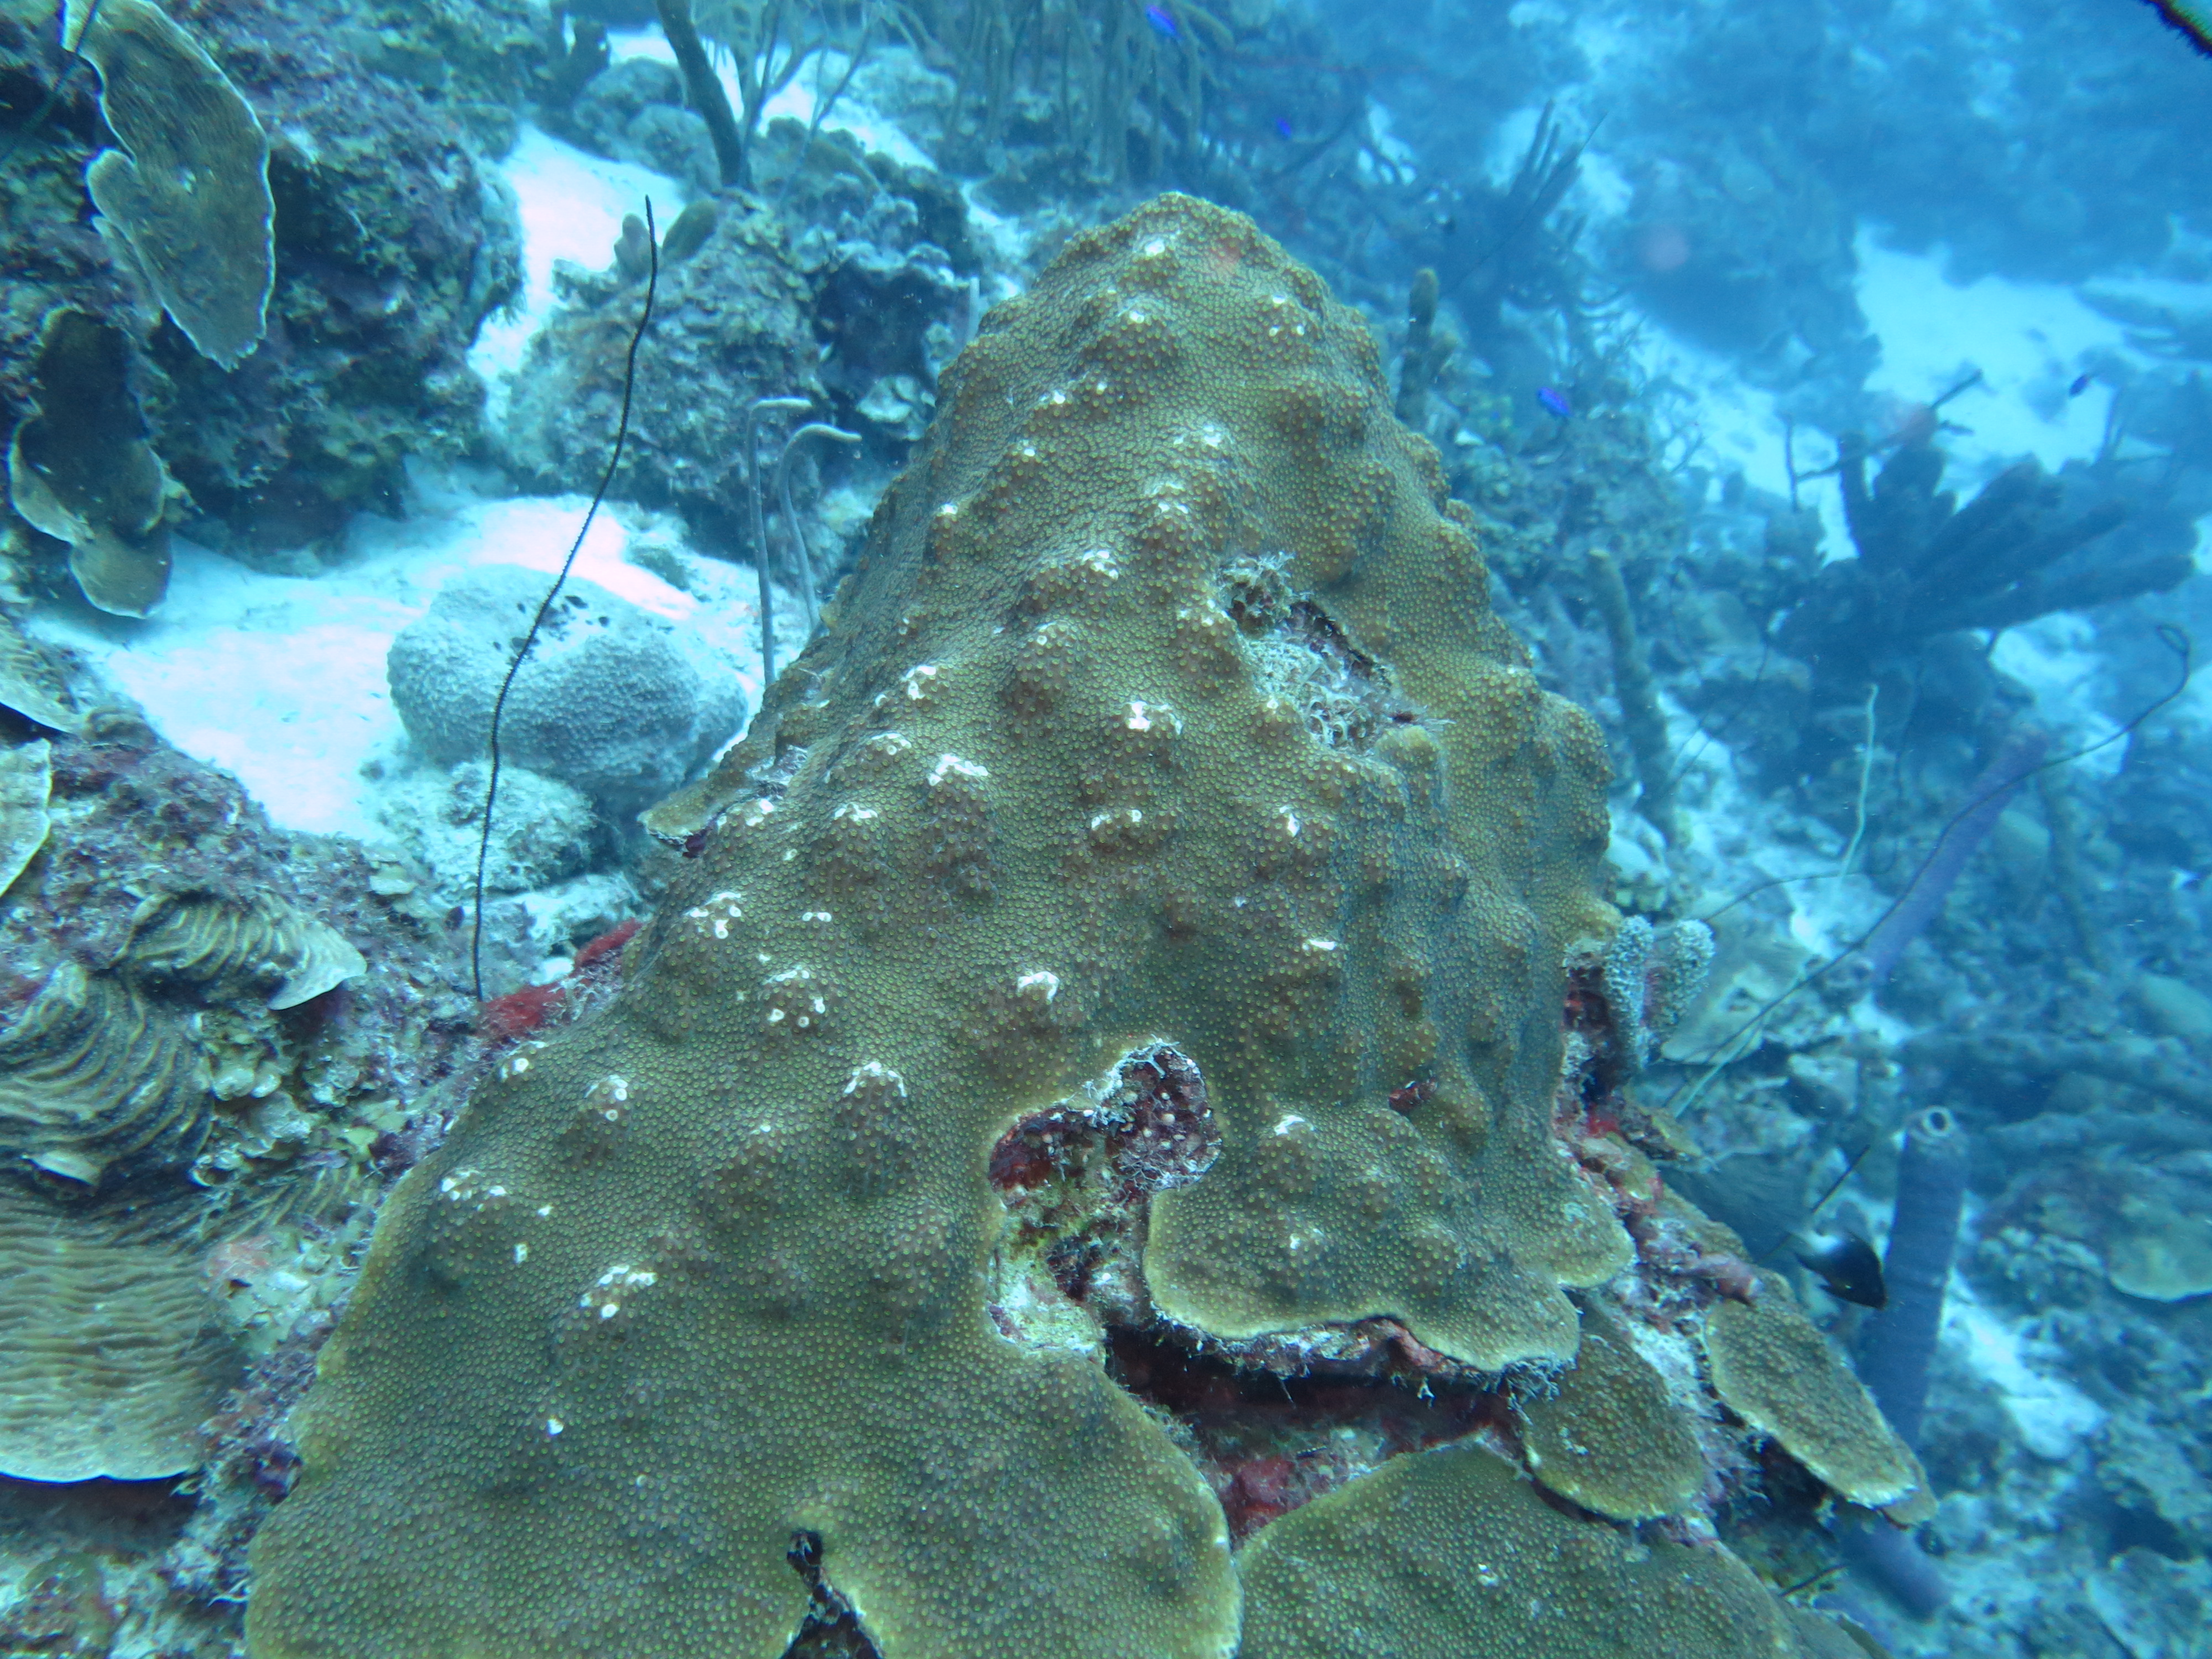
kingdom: Animalia
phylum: Cnidaria
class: Anthozoa
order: Scleractinia
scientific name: Scleractinia
